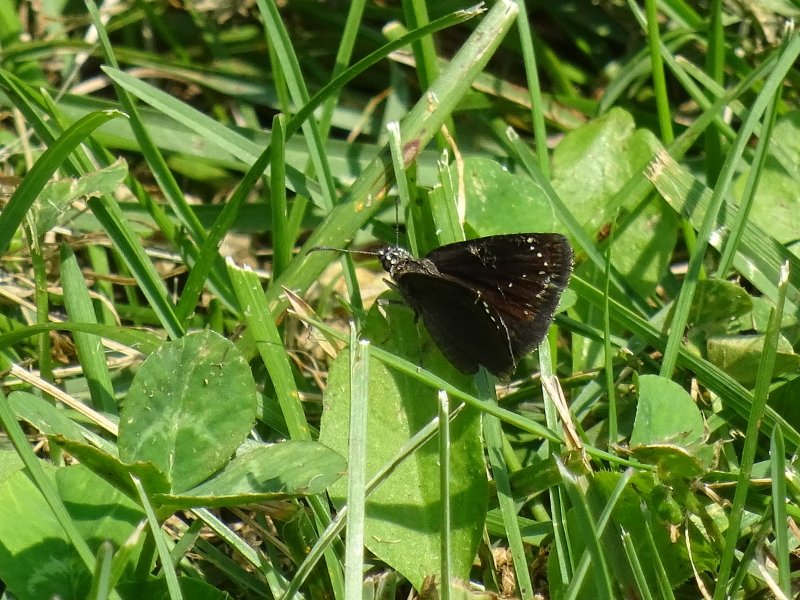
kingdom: Animalia
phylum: Arthropoda
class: Insecta
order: Lepidoptera
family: Hesperiidae
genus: Pholisora
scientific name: Pholisora catullus
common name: Common Sootywing
